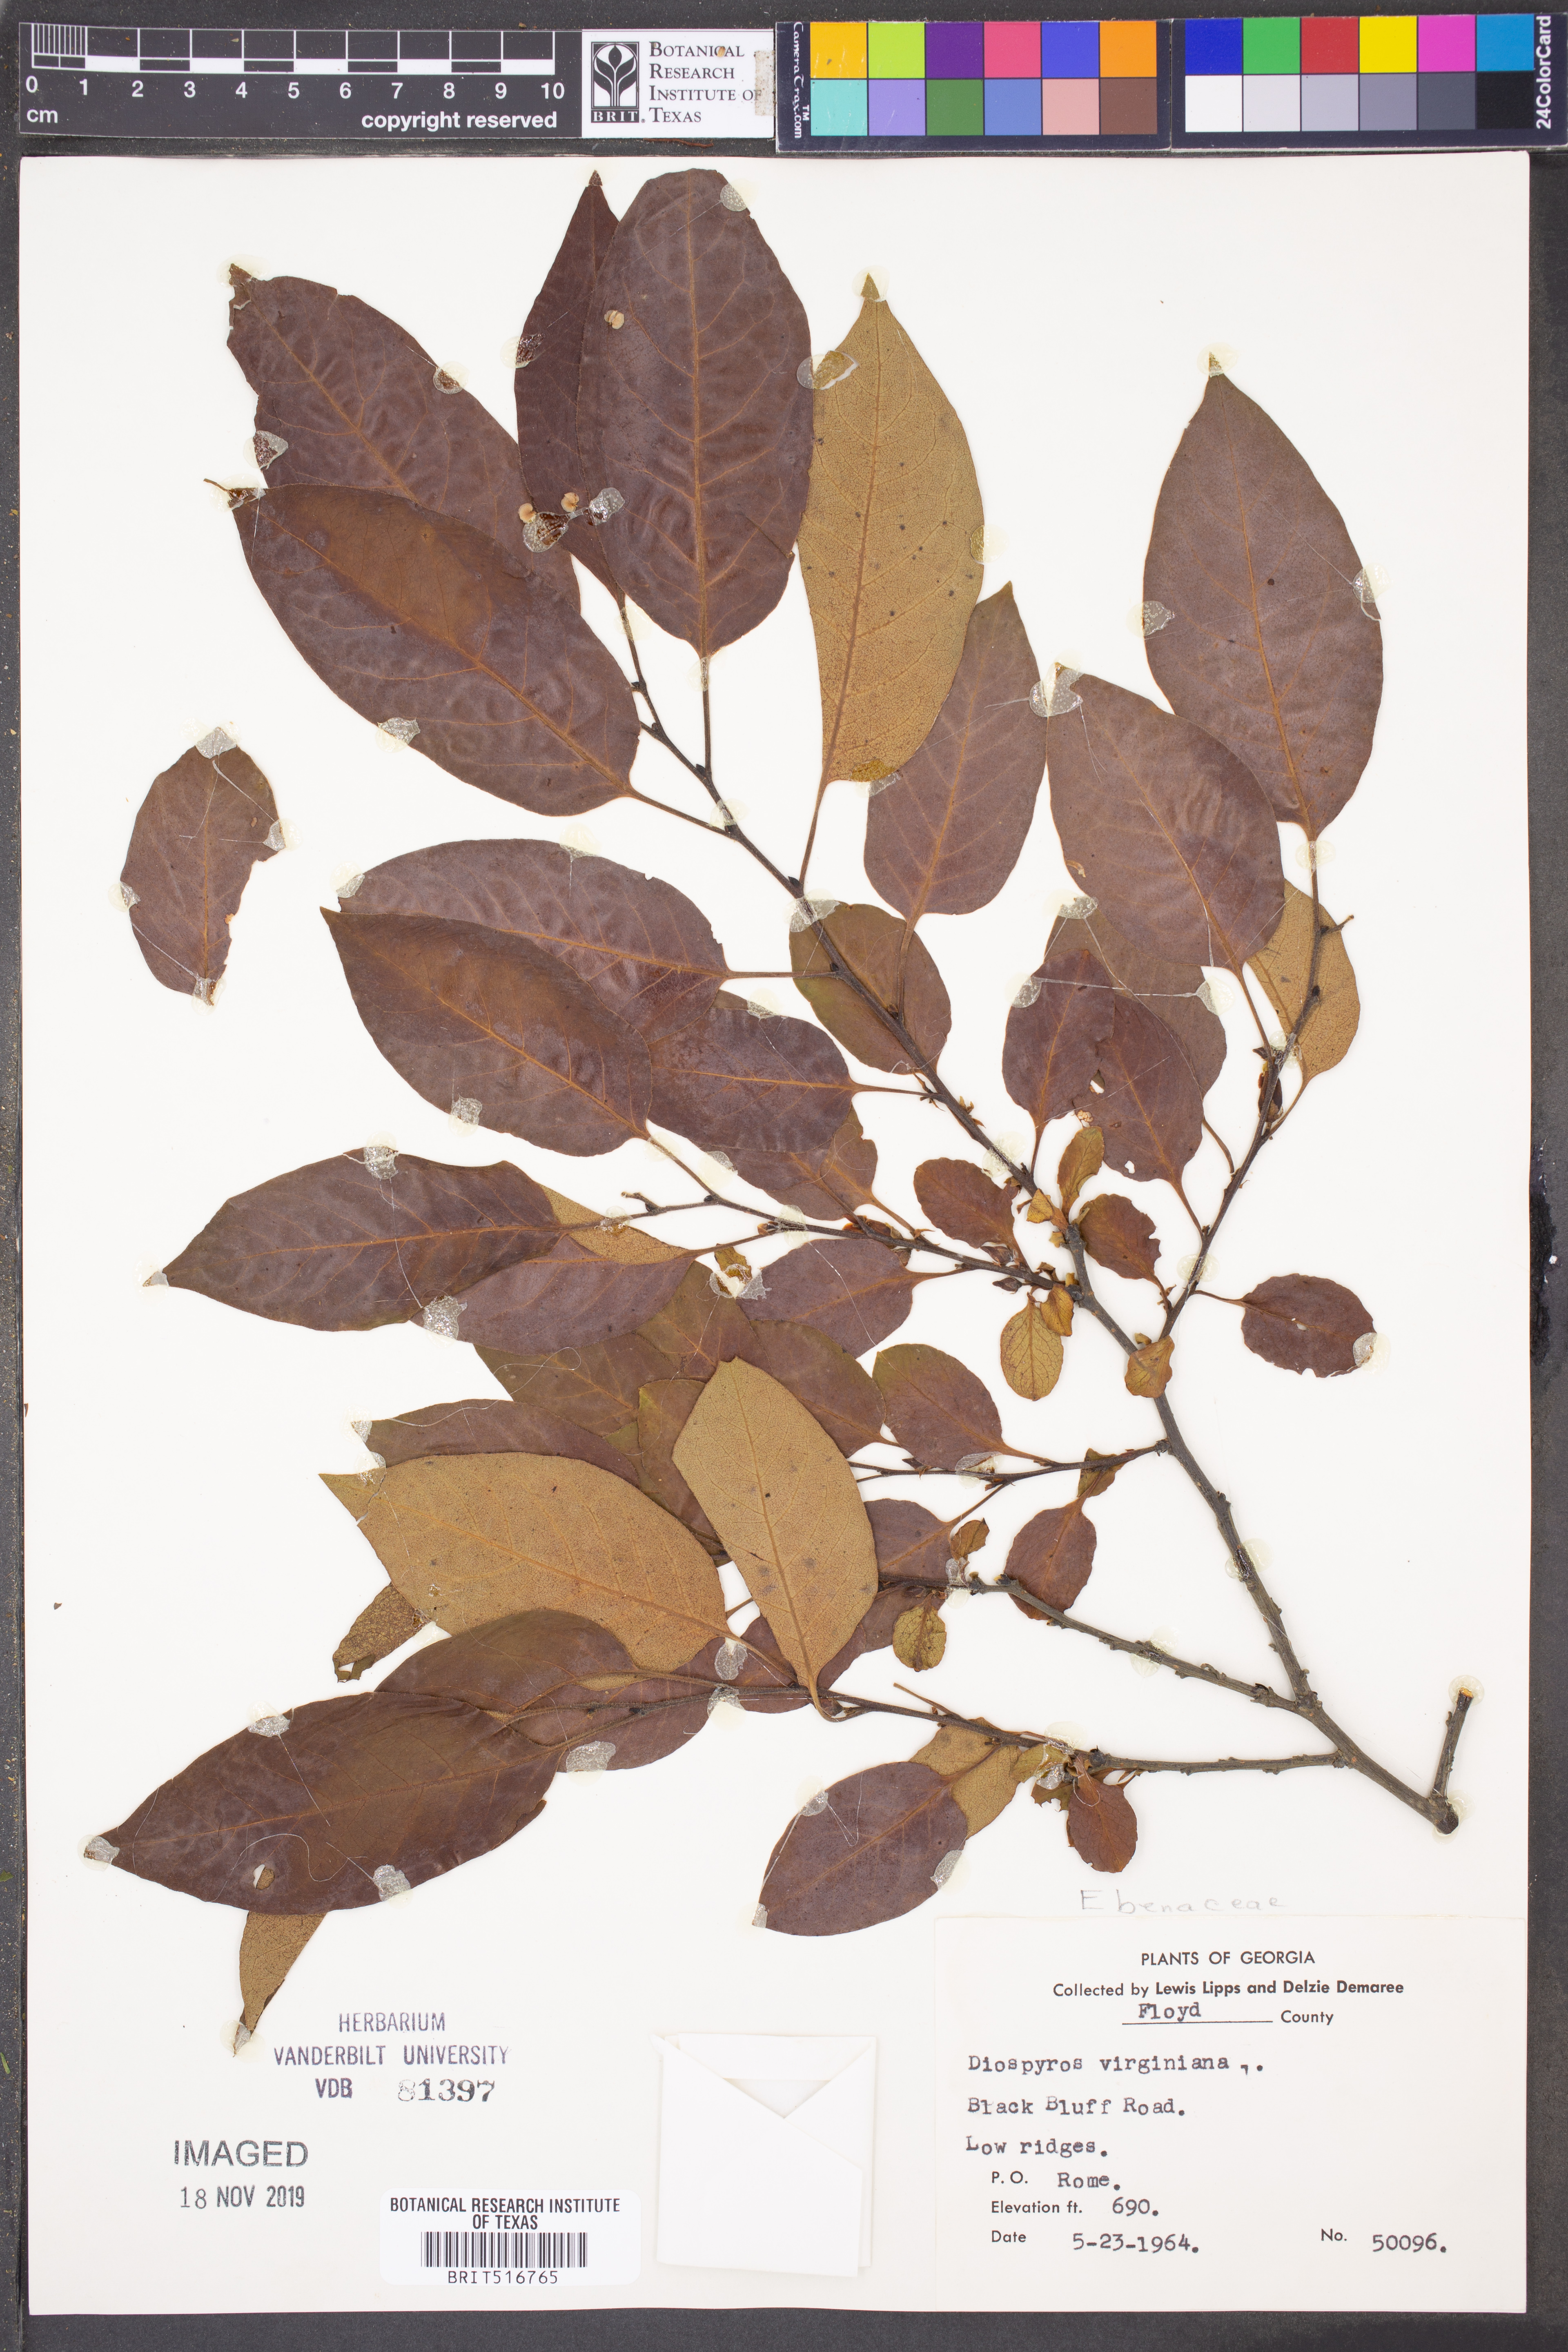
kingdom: Plantae
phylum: Tracheophyta
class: Magnoliopsida
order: Ericales
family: Ebenaceae
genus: Diospyros
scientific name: Diospyros virginiana
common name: Persimmon
